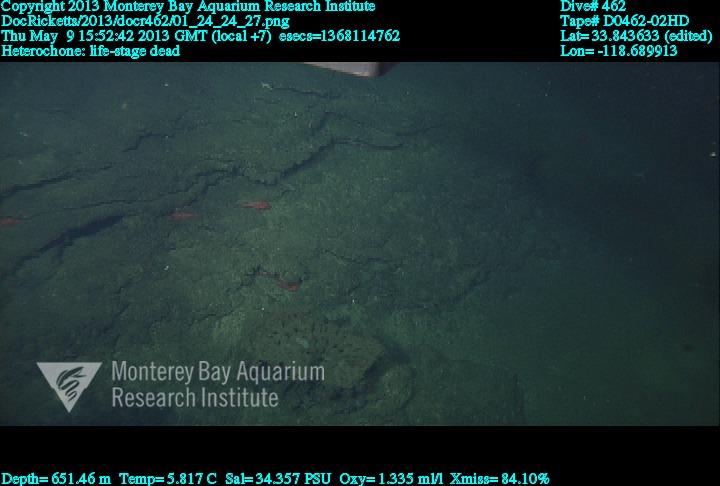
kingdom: Animalia
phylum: Porifera
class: Hexactinellida
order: Sceptrulophora
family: Aphrocallistidae
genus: Heterochone
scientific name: Heterochone
